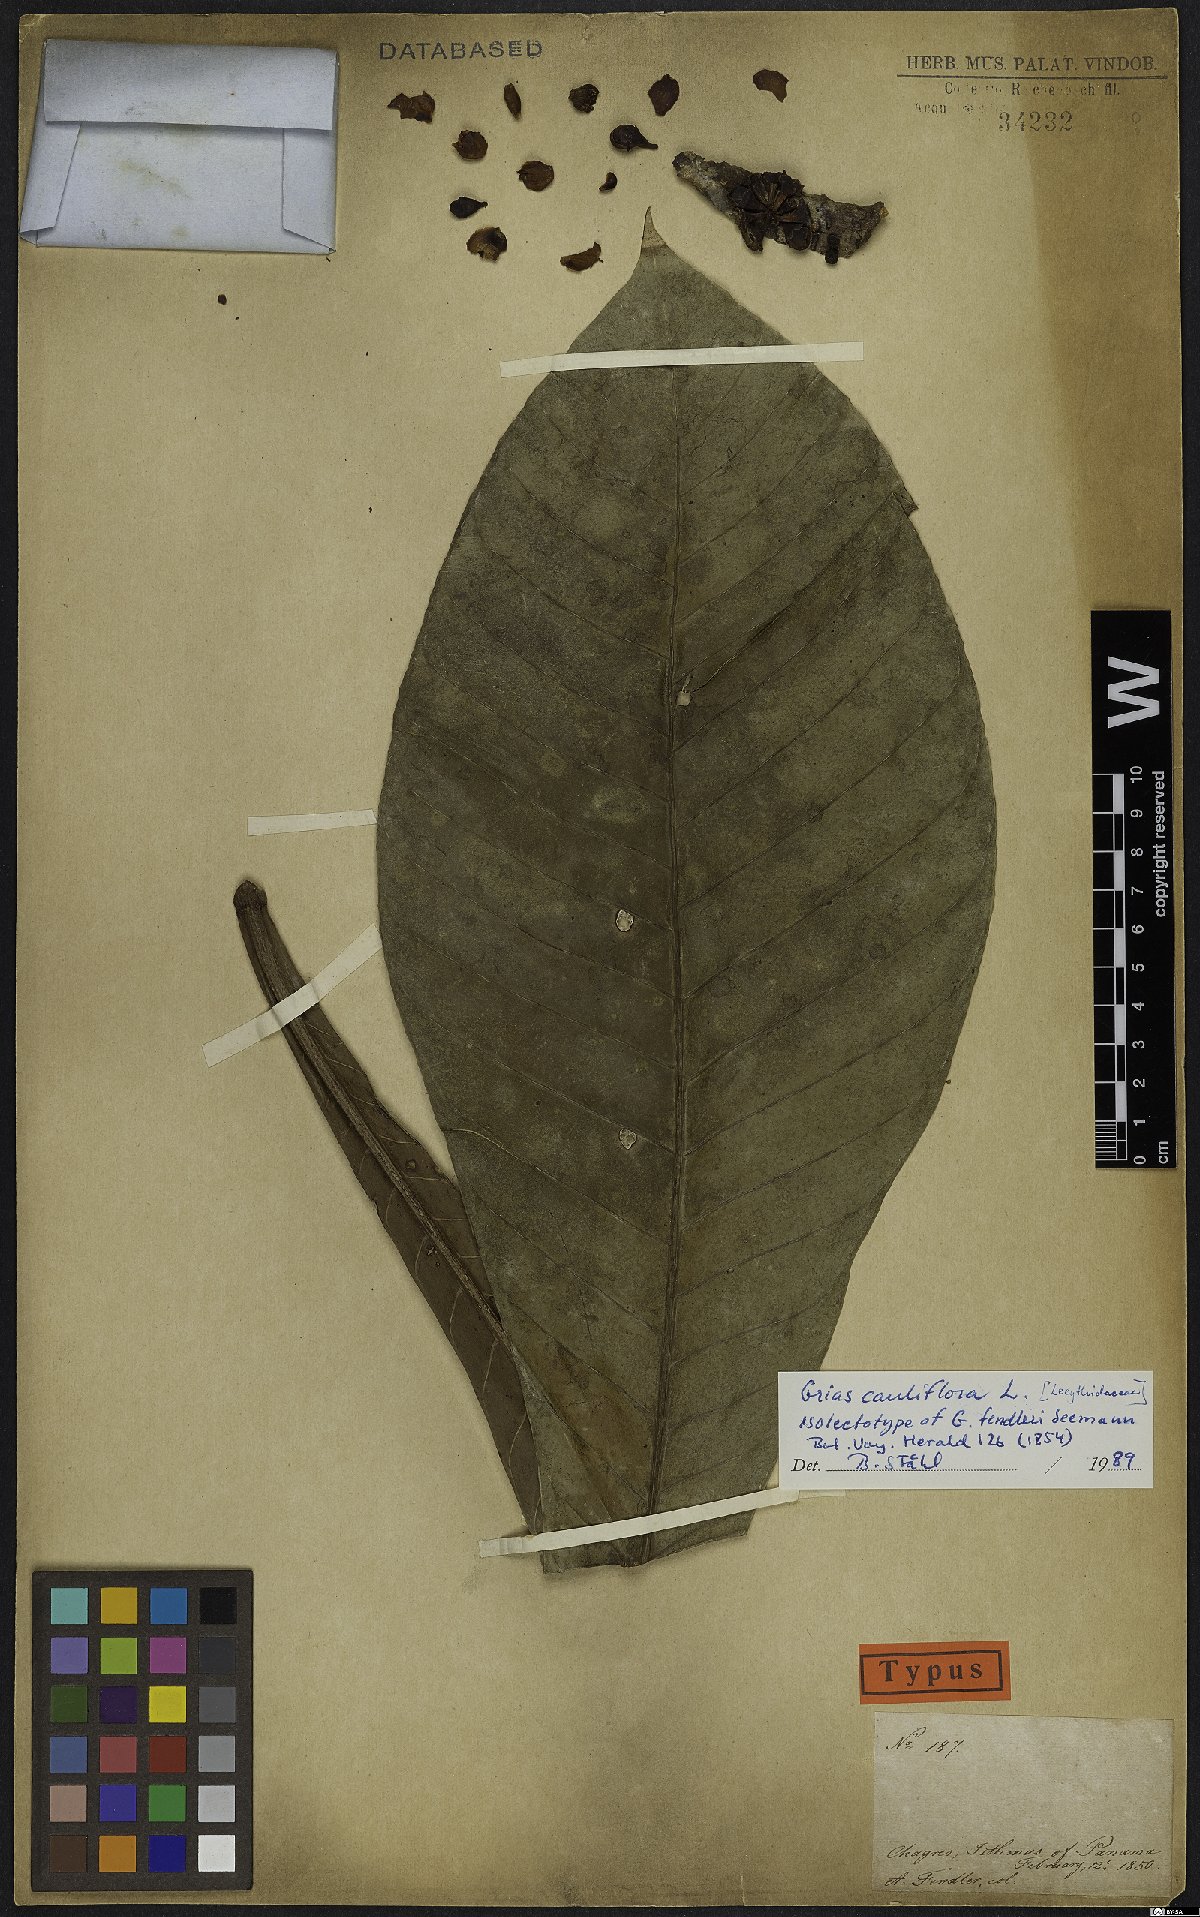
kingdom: Plantae
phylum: Tracheophyta
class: Magnoliopsida
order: Ericales
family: Lecythidaceae
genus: Grias
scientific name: Grias cauliflora
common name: Anchovy-pear
